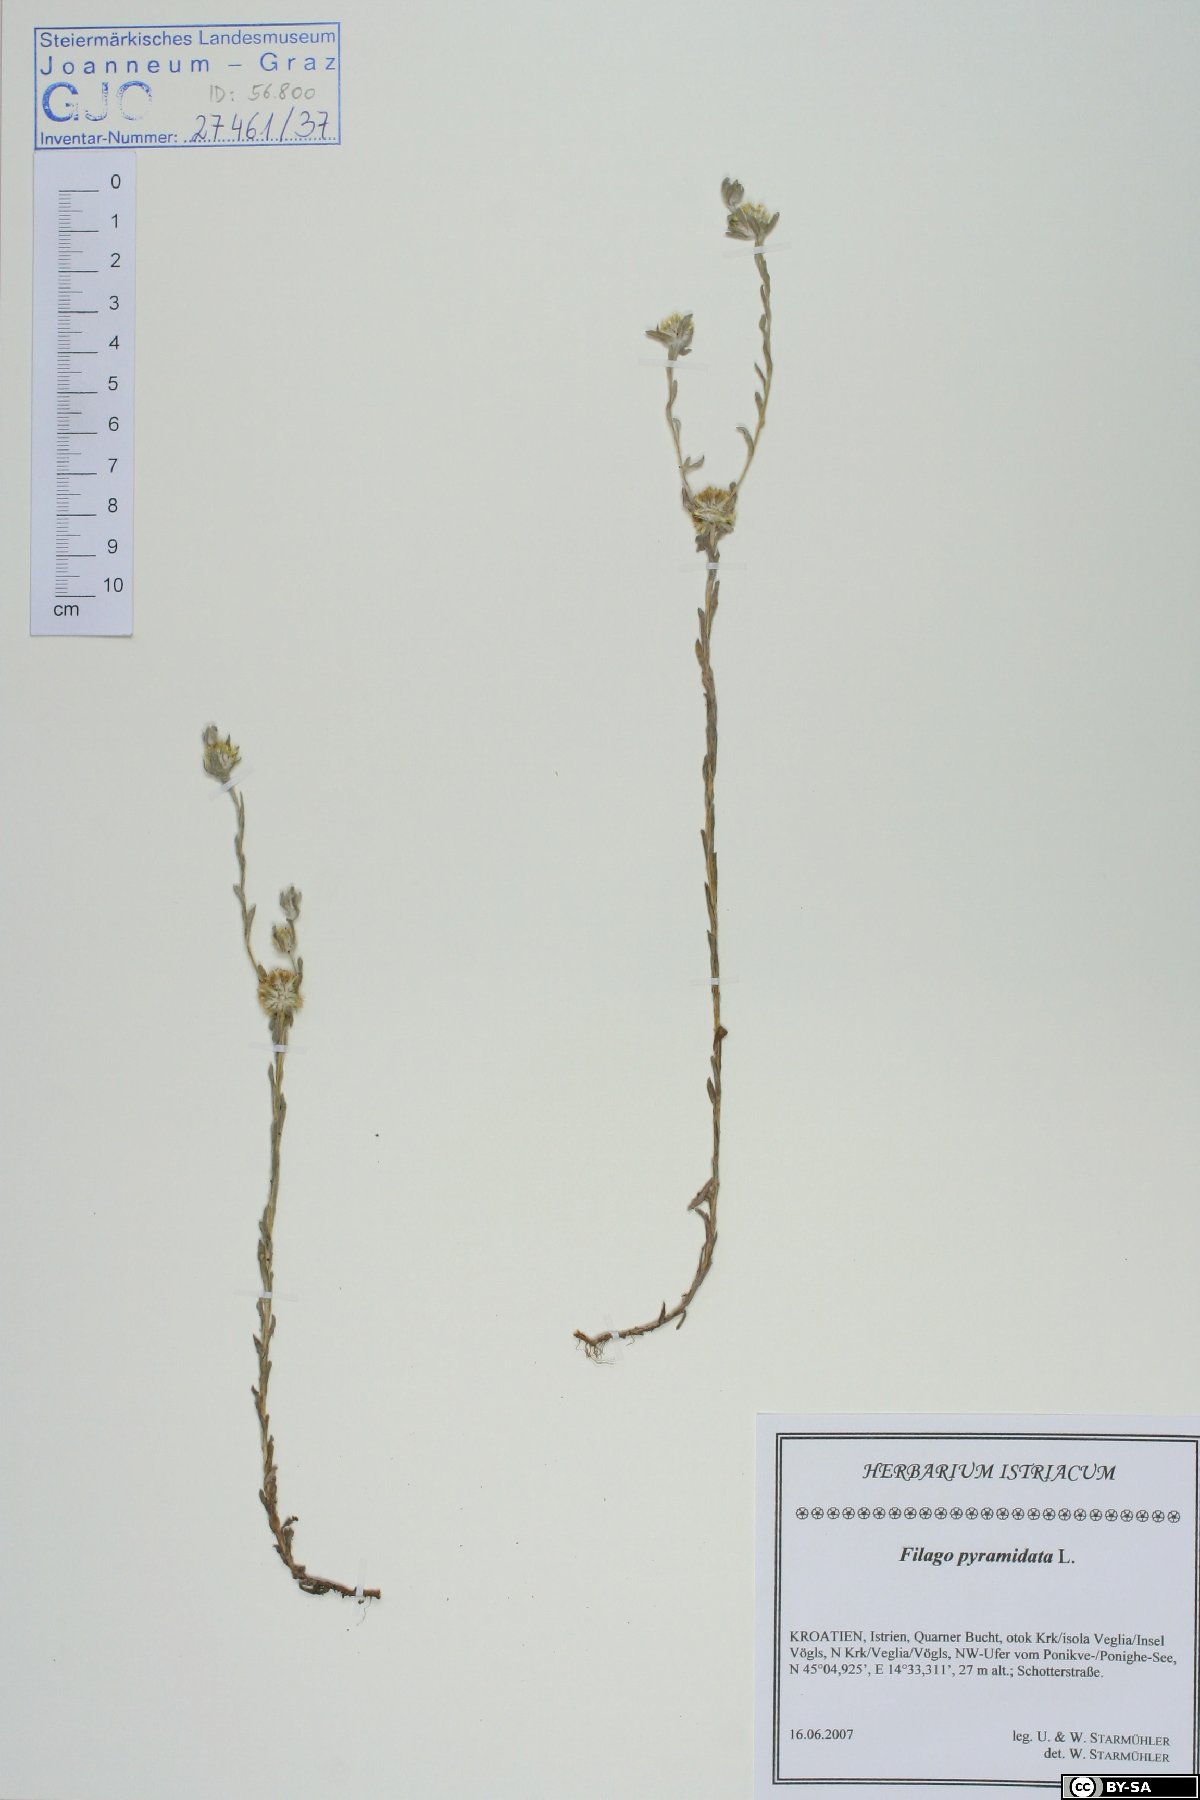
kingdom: Plantae
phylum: Tracheophyta
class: Magnoliopsida
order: Asterales
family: Asteraceae
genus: Filago
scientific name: Filago pyramidata
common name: Broad-leaved cudweed
